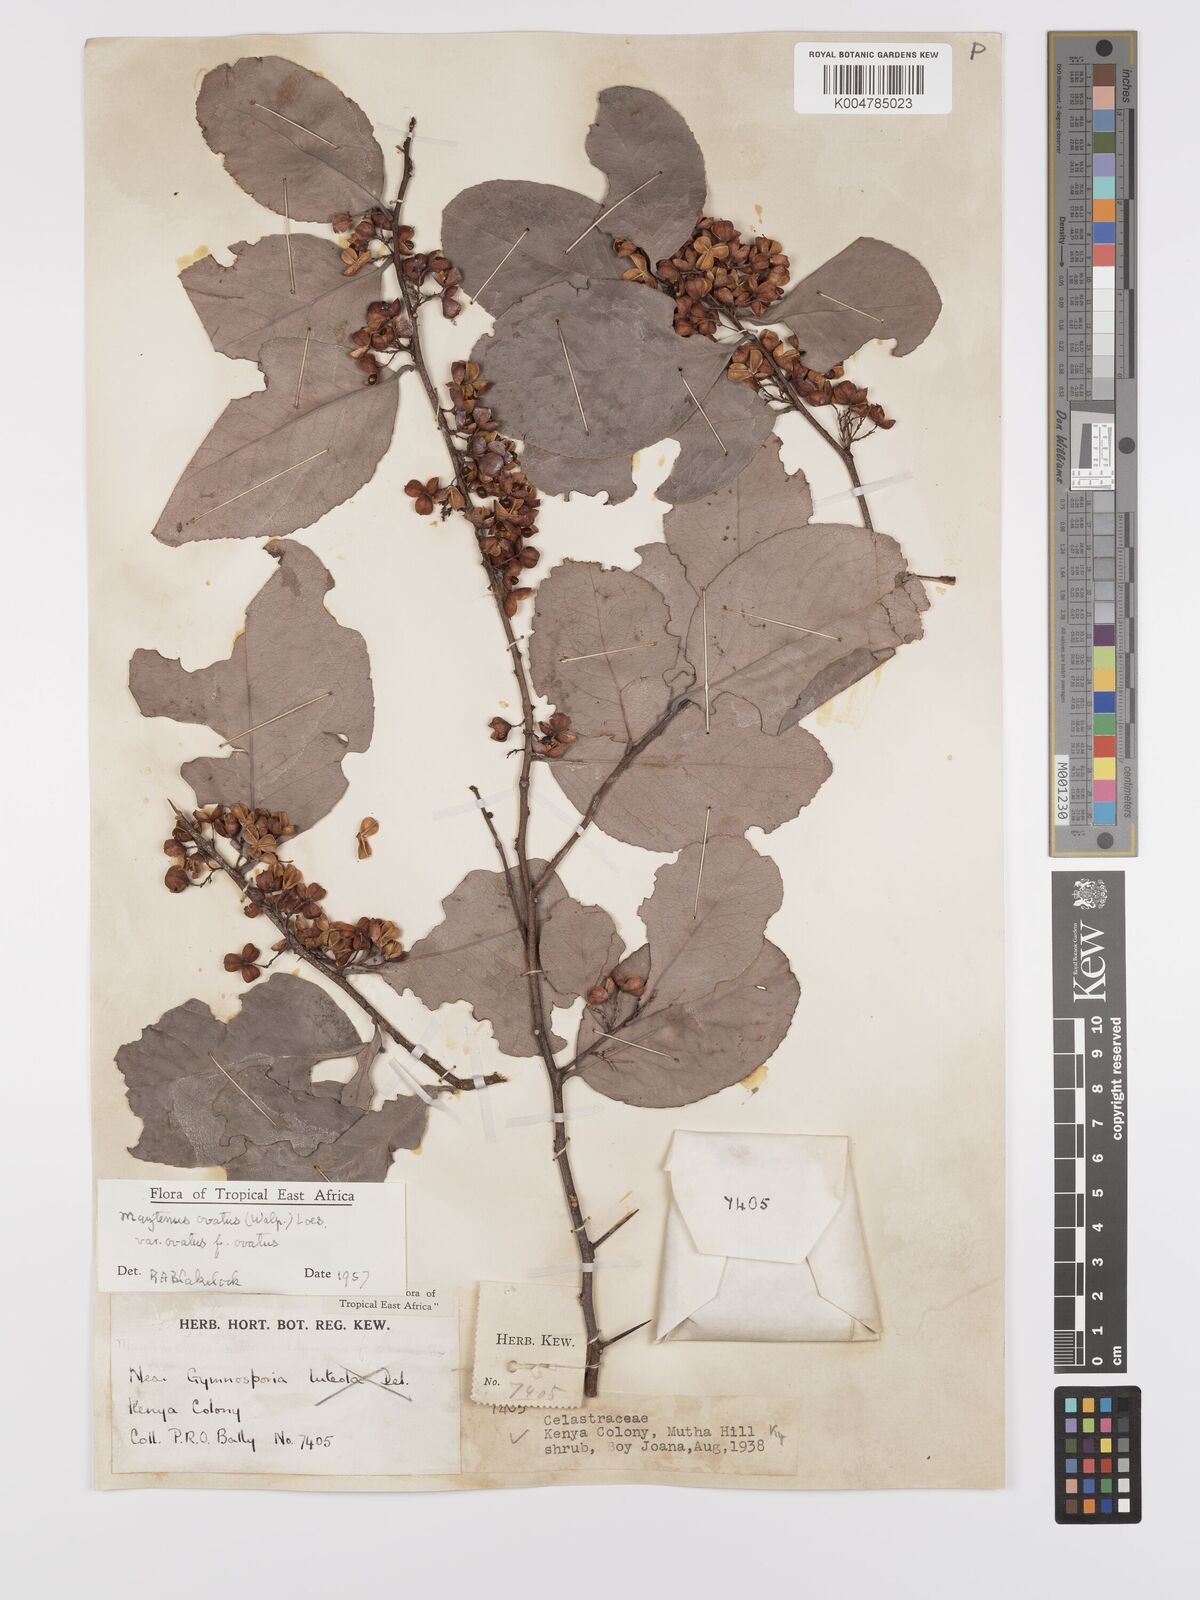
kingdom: Plantae
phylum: Tracheophyta
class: Magnoliopsida
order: Celastrales
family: Celastraceae
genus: Gymnosporia
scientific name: Gymnosporia buchananii
